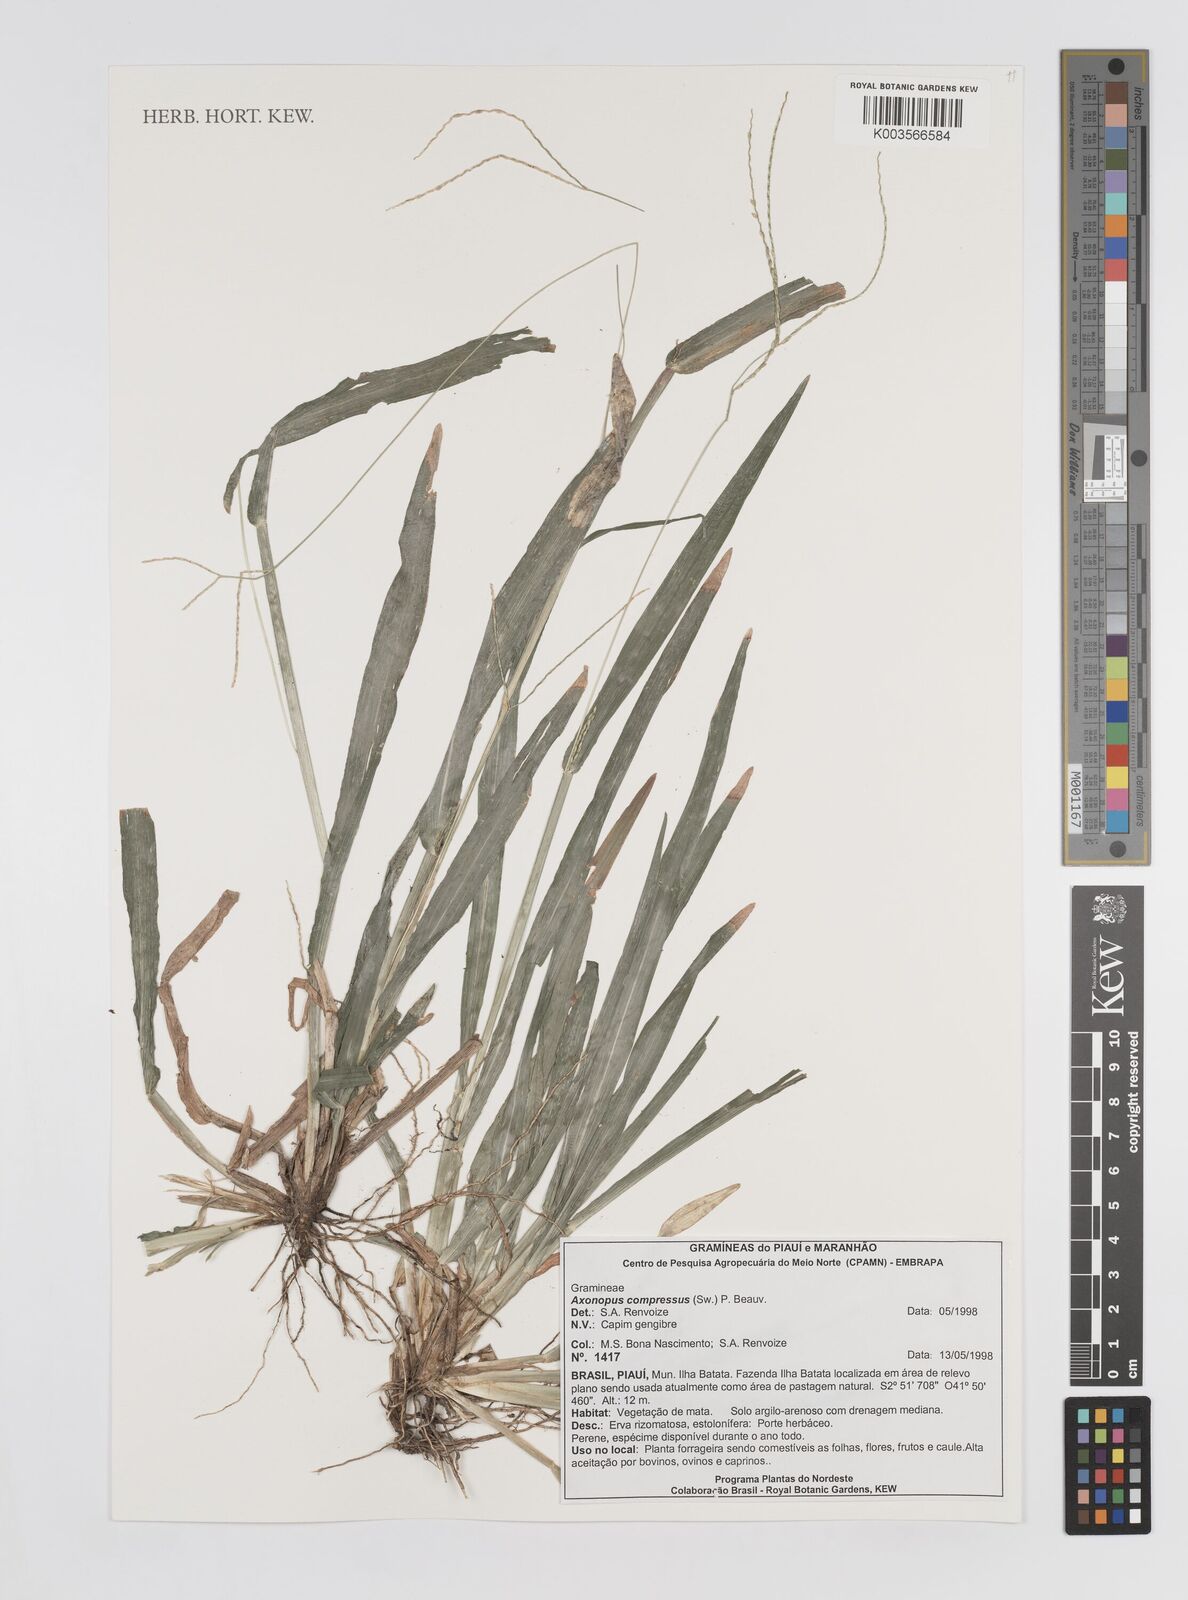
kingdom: Plantae
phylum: Tracheophyta
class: Liliopsida
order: Poales
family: Poaceae
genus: Axonopus
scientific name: Axonopus compressus
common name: American carpet grass
